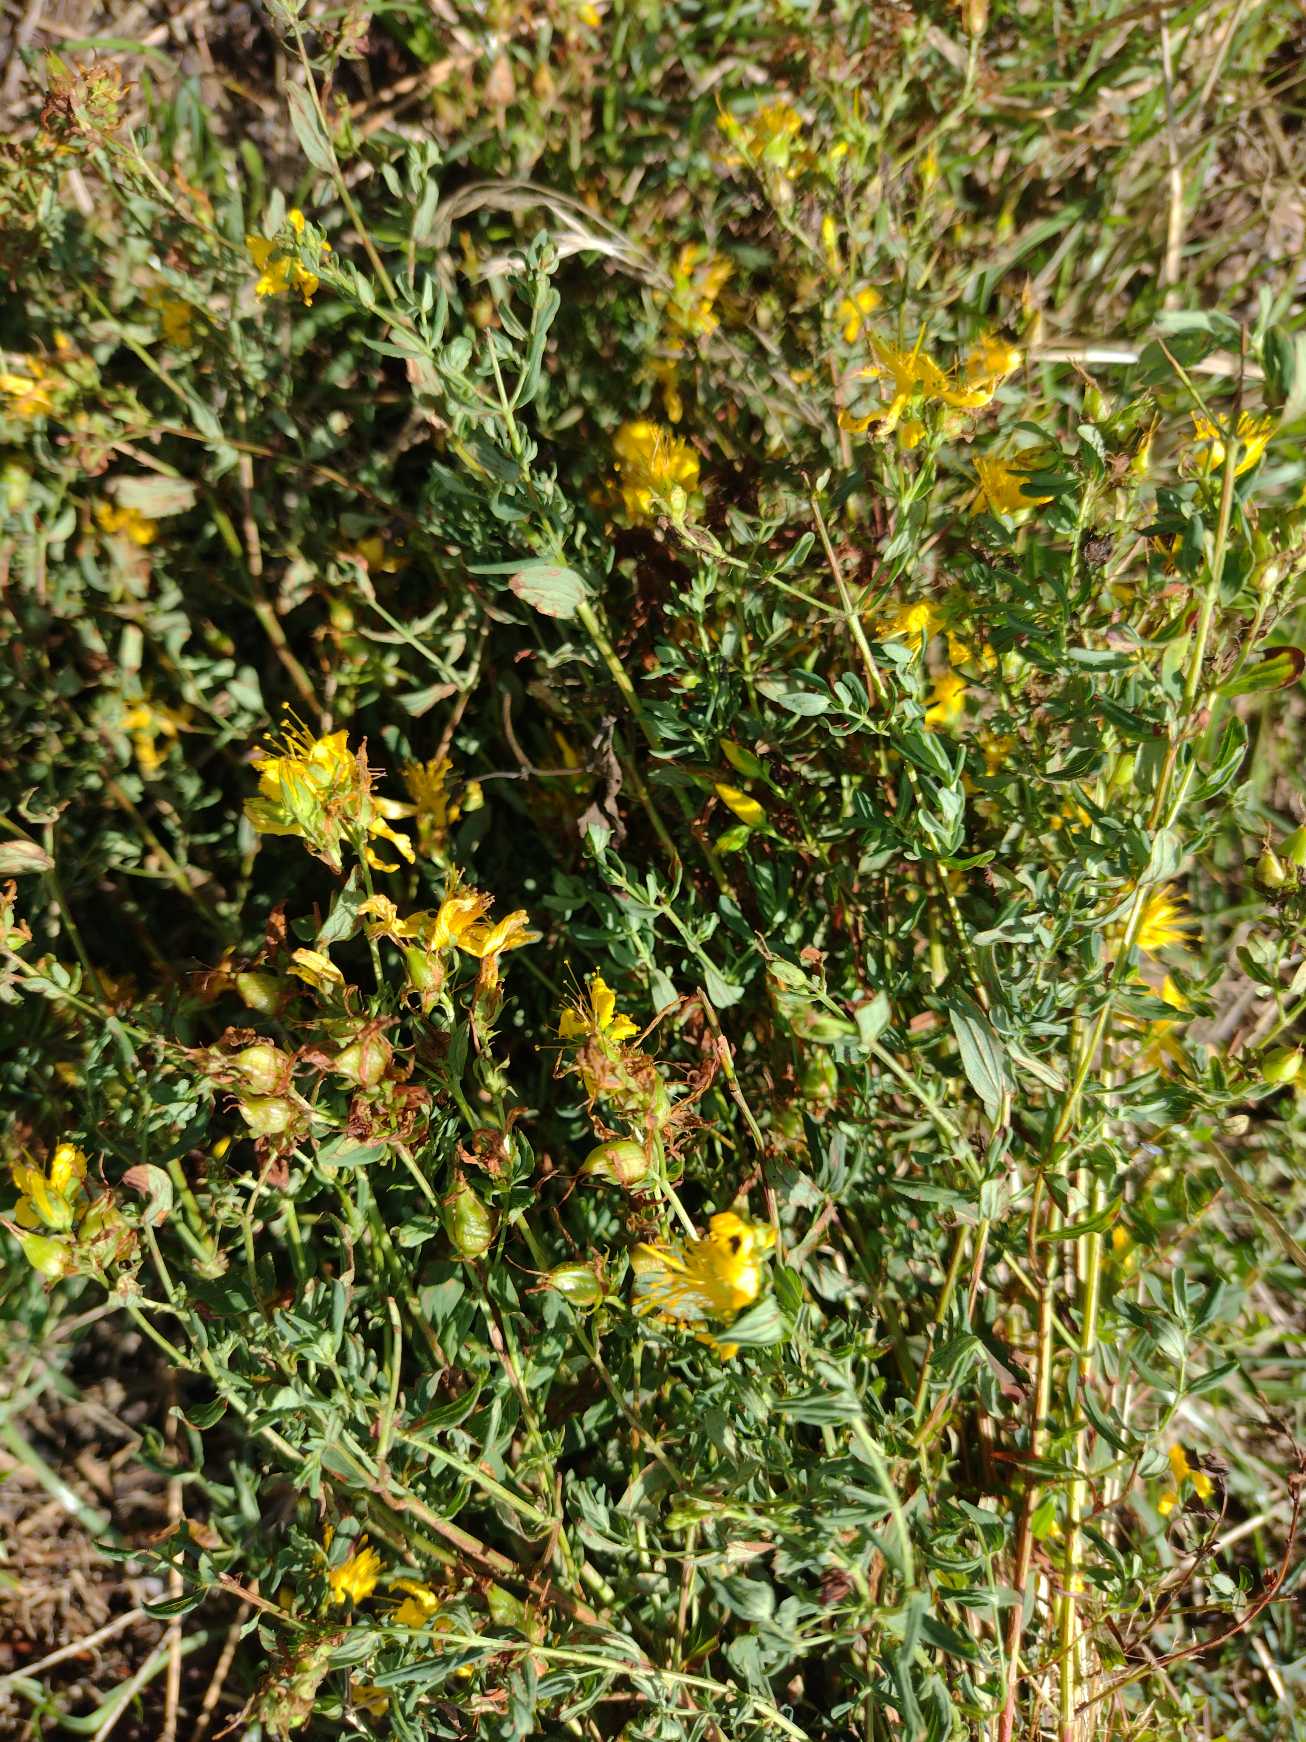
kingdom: Plantae
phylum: Tracheophyta
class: Magnoliopsida
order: Malpighiales
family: Hypericaceae
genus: Hypericum
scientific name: Hypericum perforatum
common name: Prikbladet perikon
